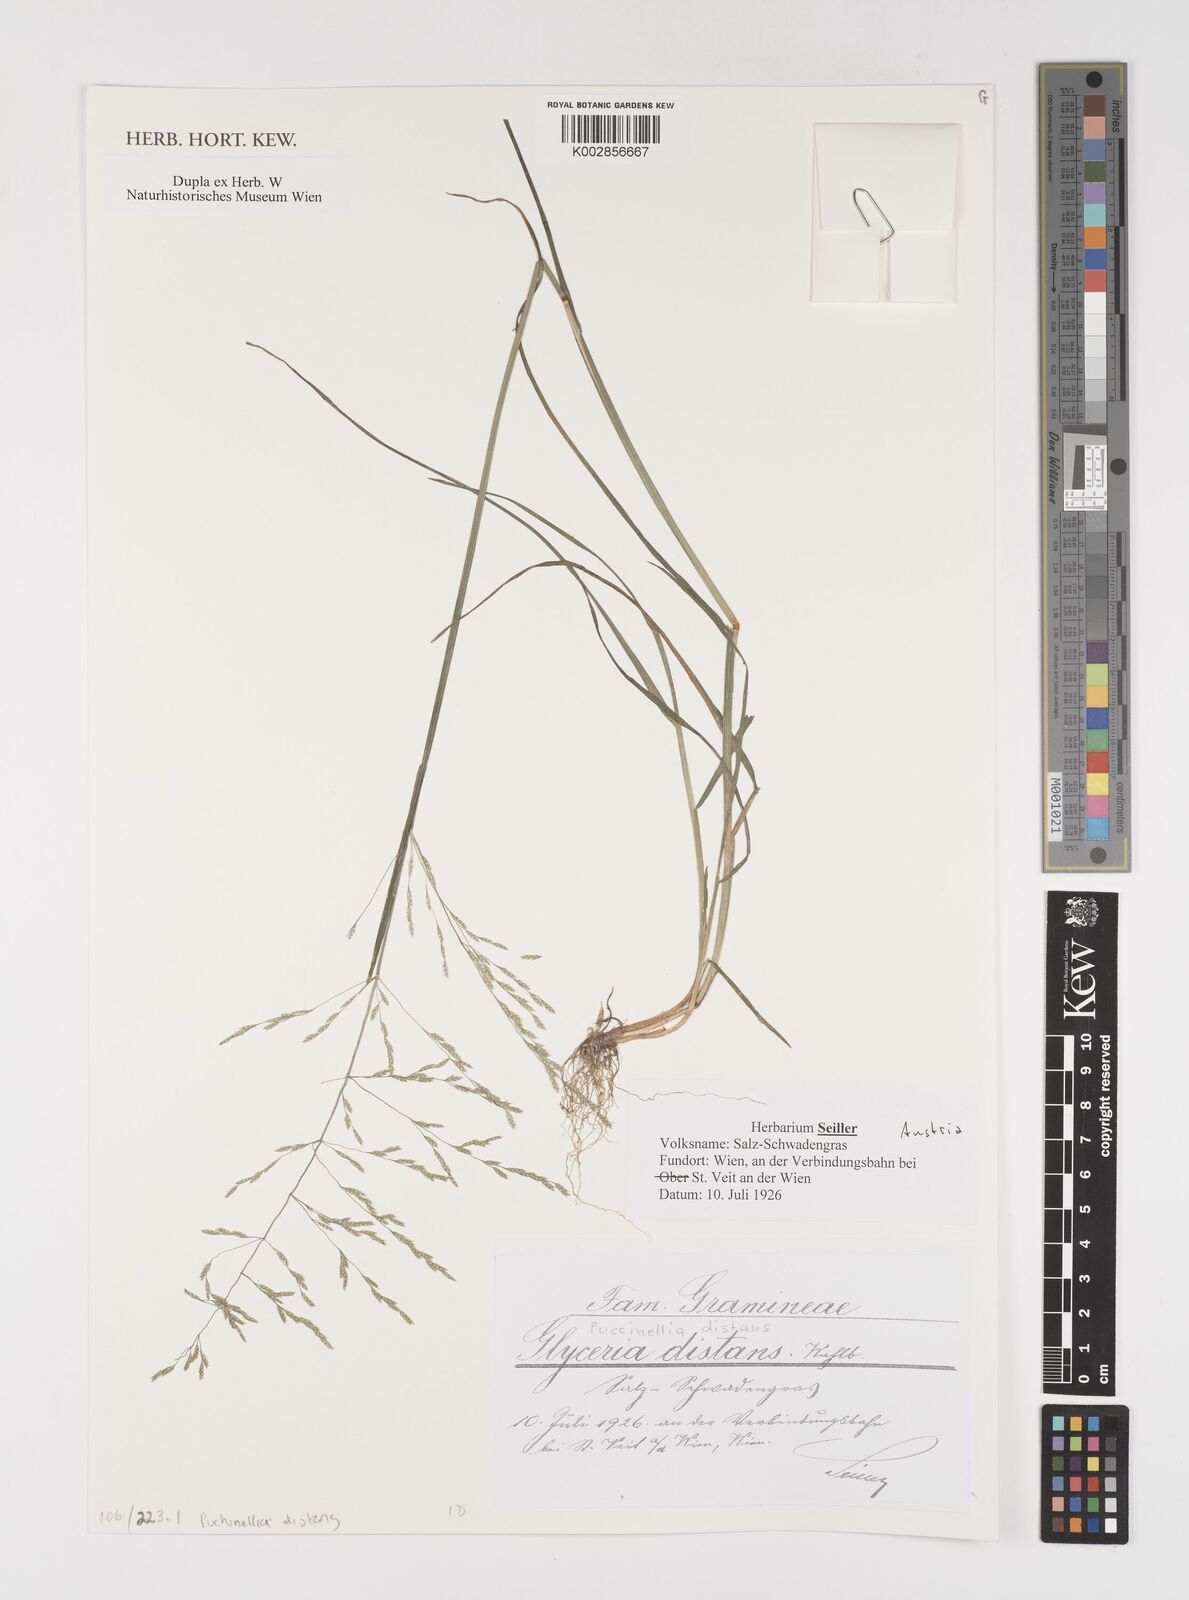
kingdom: Plantae
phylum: Tracheophyta
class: Liliopsida
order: Poales
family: Poaceae
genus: Puccinellia
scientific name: Puccinellia
